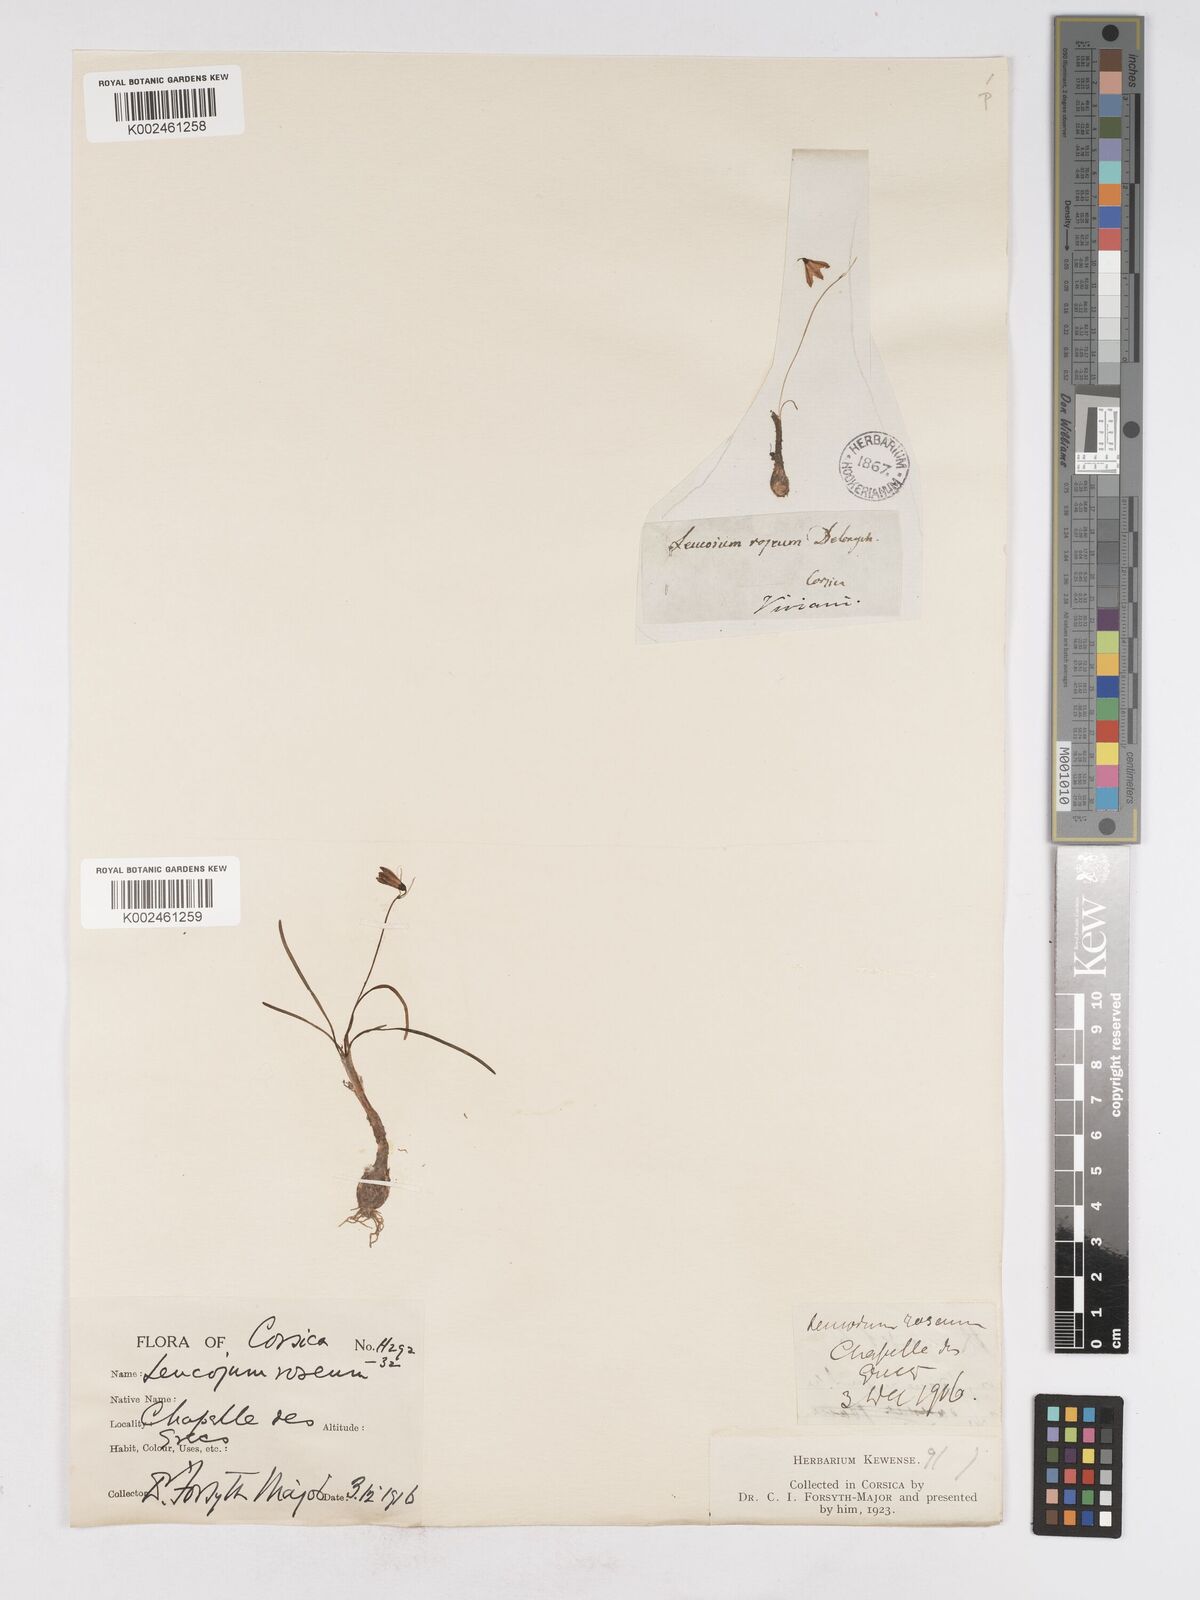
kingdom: Plantae
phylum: Tracheophyta
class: Liliopsida
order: Asparagales
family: Amaryllidaceae
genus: Acis
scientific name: Acis rosea
